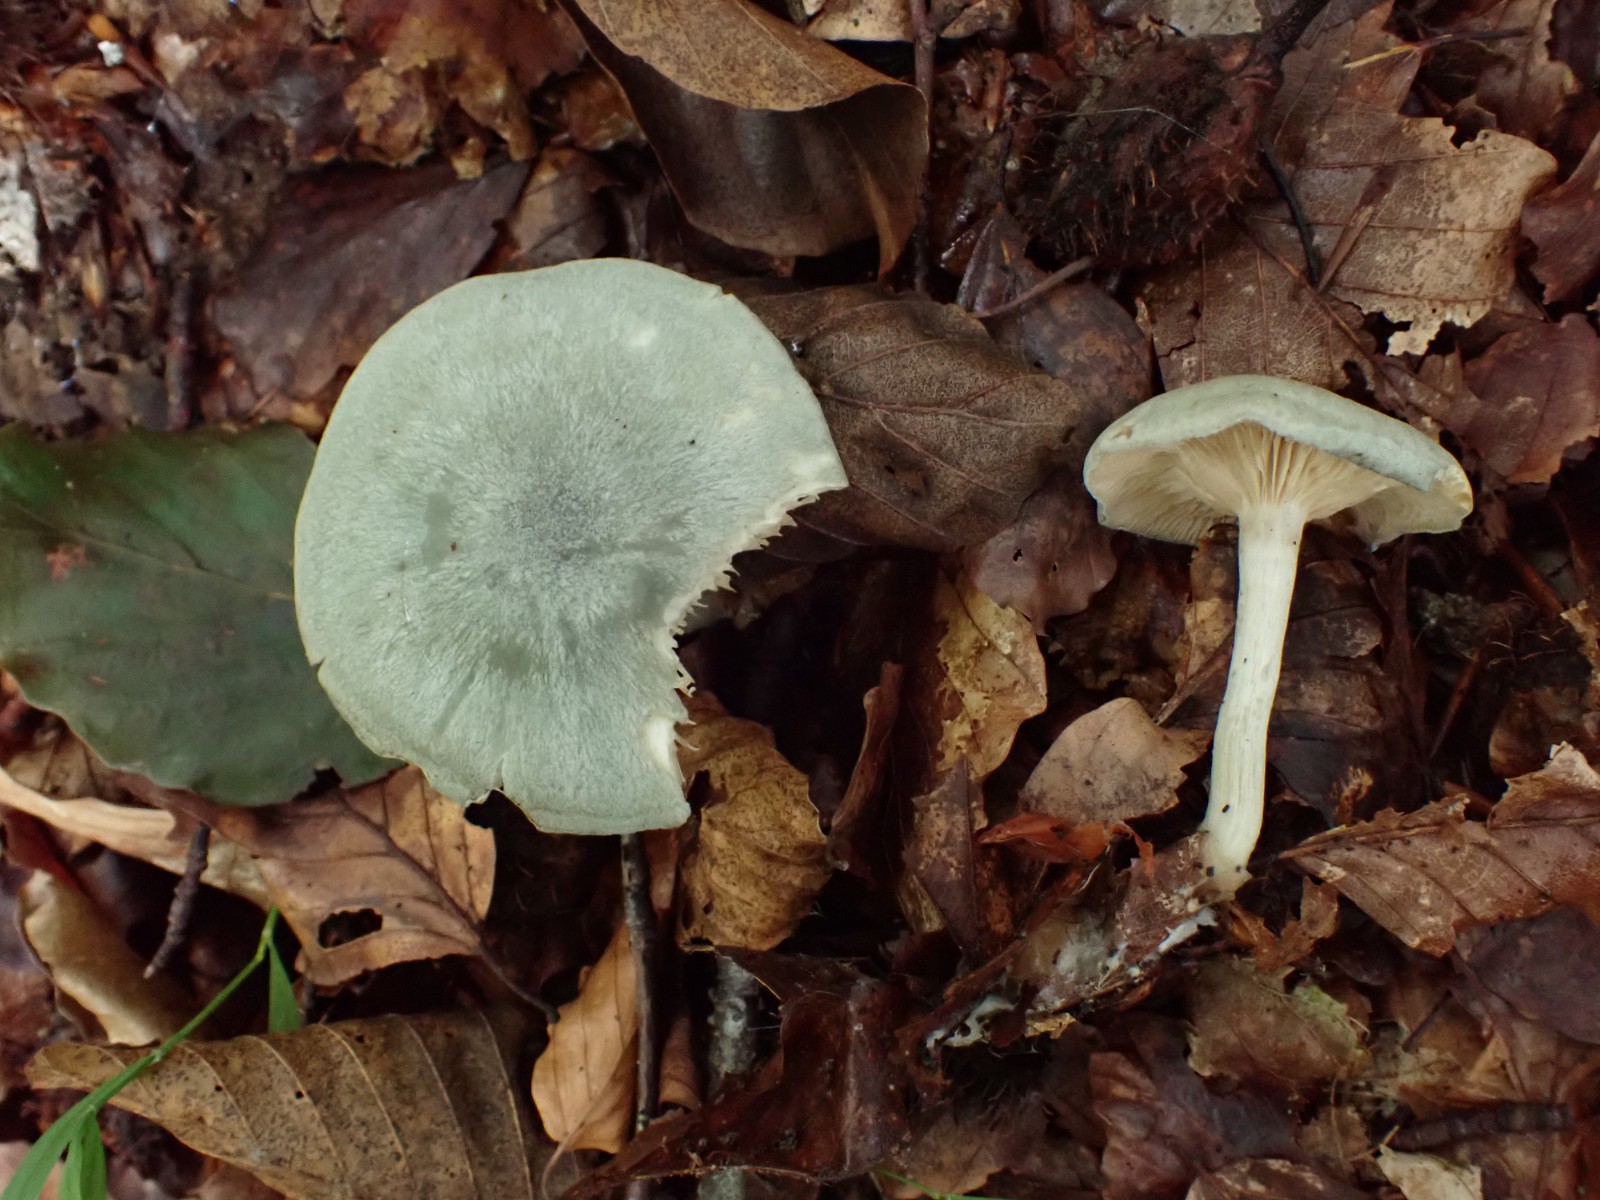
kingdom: Fungi
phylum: Basidiomycota
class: Agaricomycetes
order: Agaricales
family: Tricholomataceae
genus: Clitocybe
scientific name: Clitocybe odora
